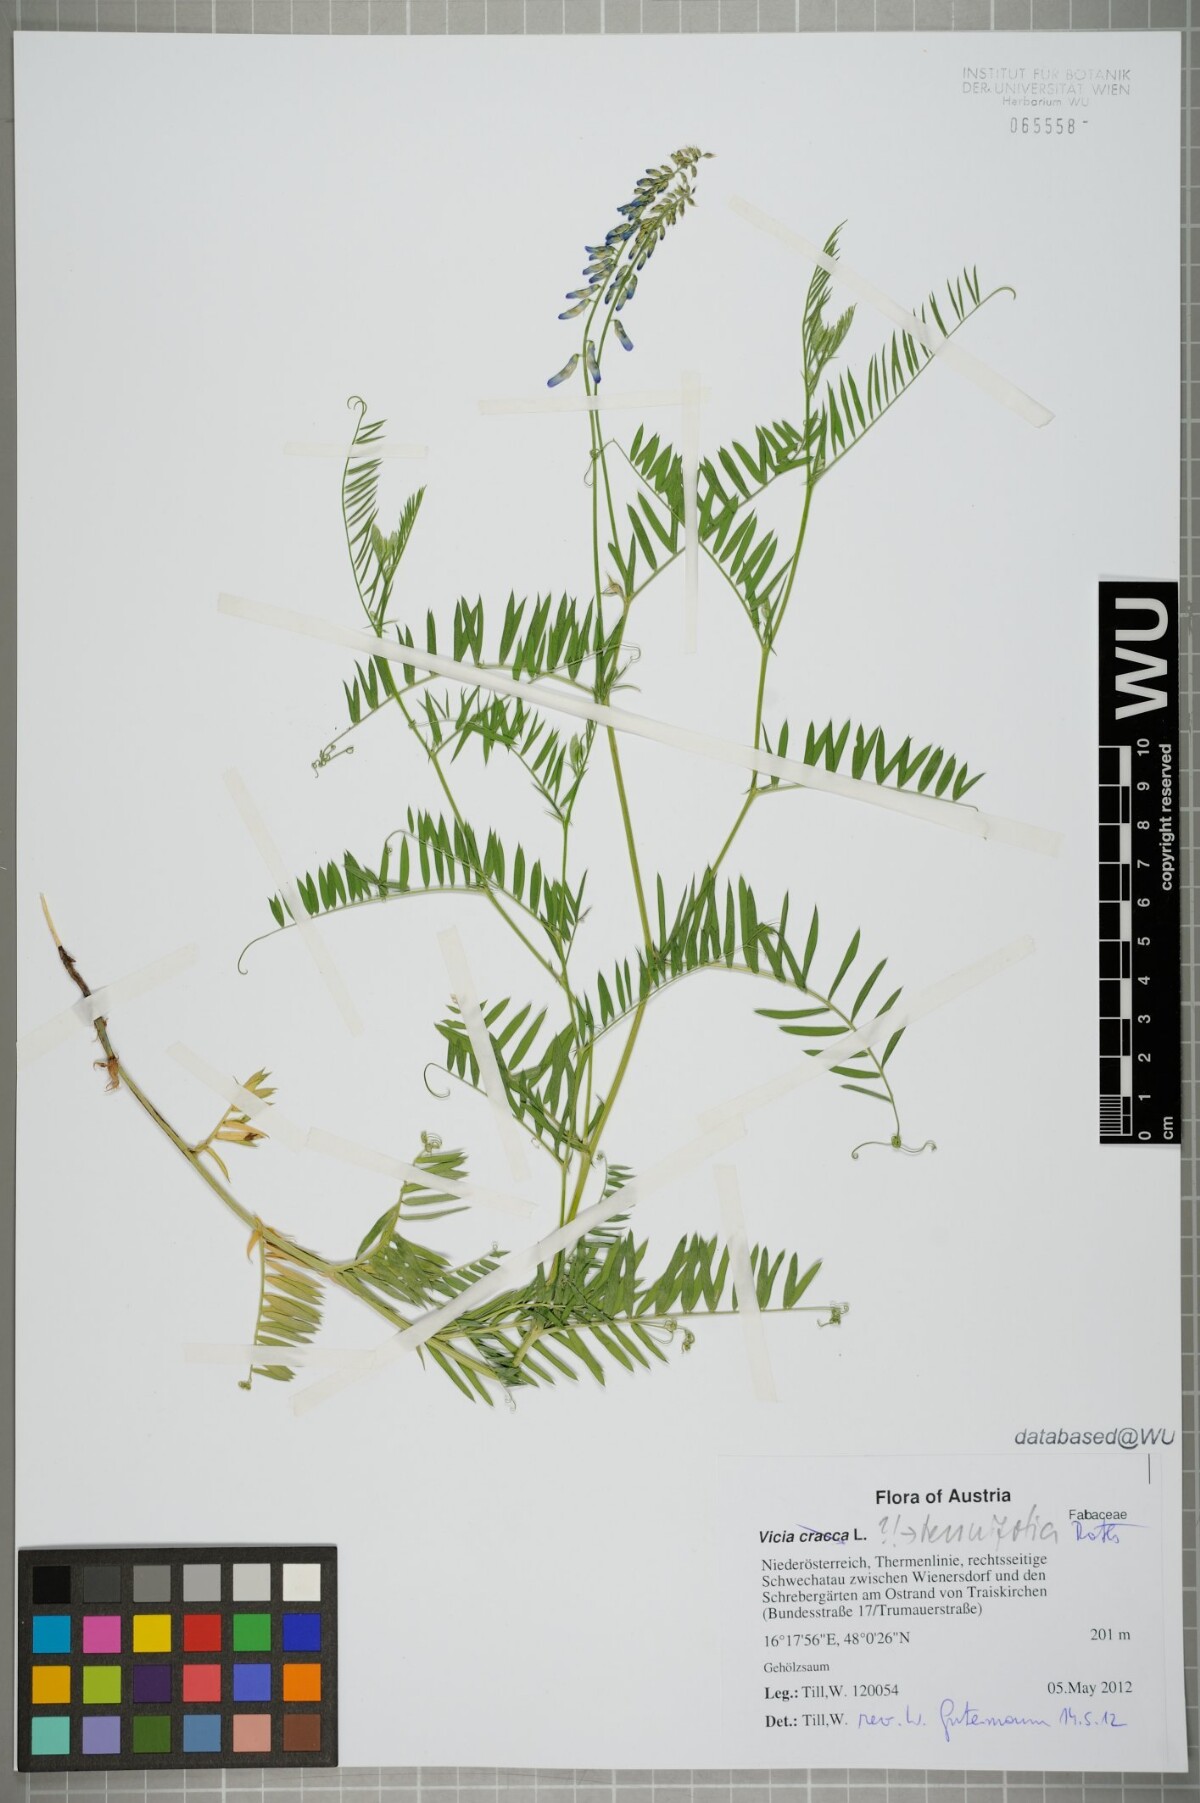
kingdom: Plantae
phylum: Tracheophyta
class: Magnoliopsida
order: Fabales
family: Fabaceae
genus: Vicia
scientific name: Vicia tenuifolia
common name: Fine-leaved vetch
